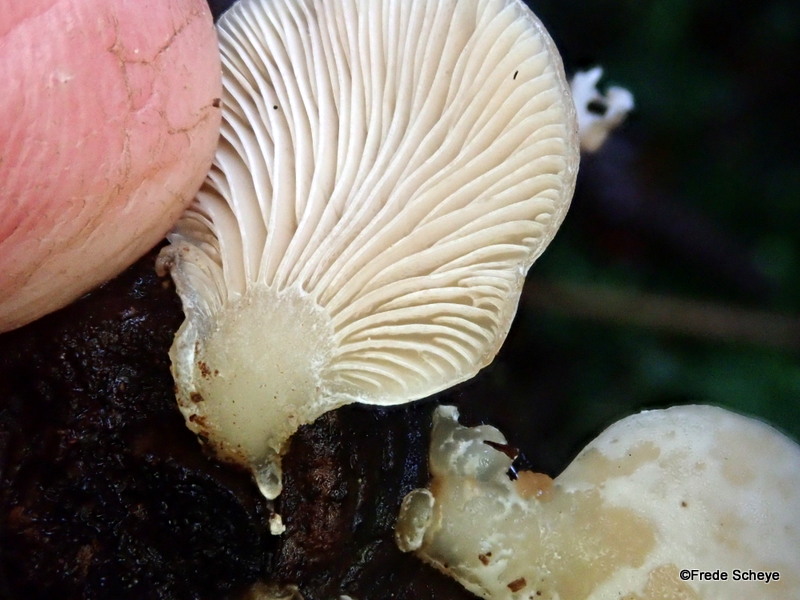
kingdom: Fungi
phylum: Basidiomycota
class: Agaricomycetes
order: Agaricales
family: Mycenaceae
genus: Panellus
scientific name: Panellus mitis
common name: mild epaulethat
